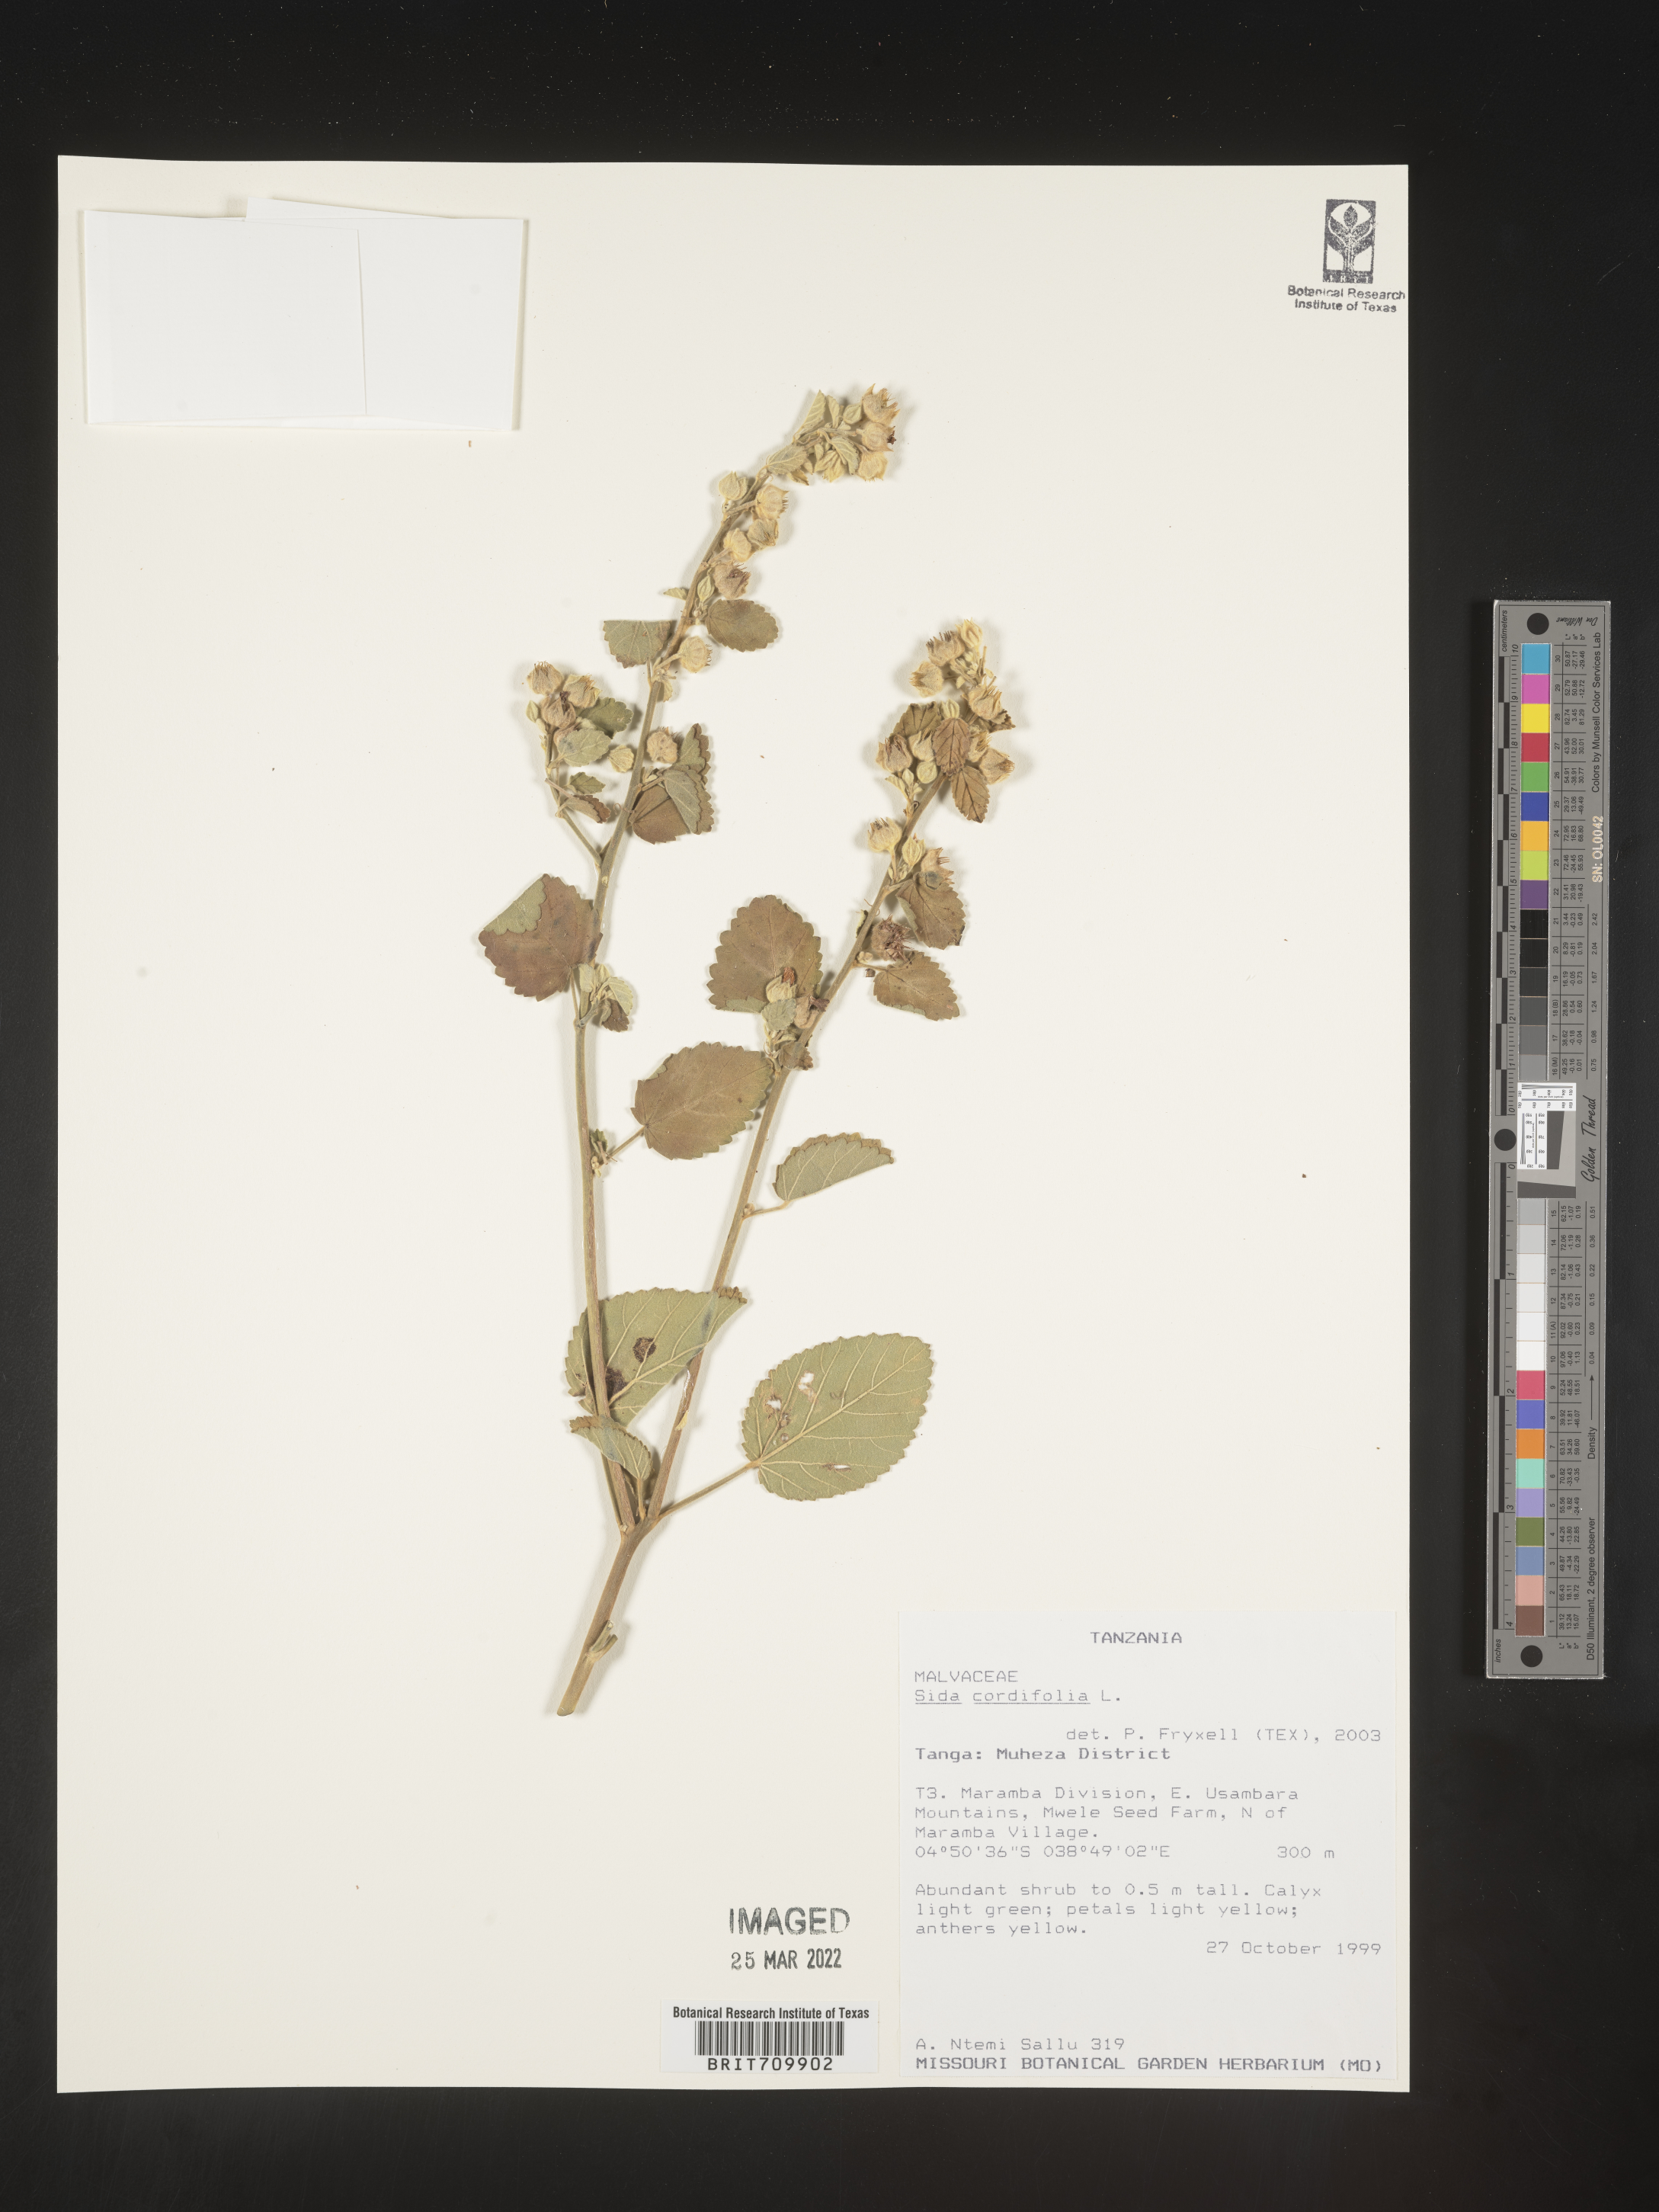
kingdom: Plantae
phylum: Tracheophyta
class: Magnoliopsida
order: Malvales
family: Malvaceae
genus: Sida
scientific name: Sida
